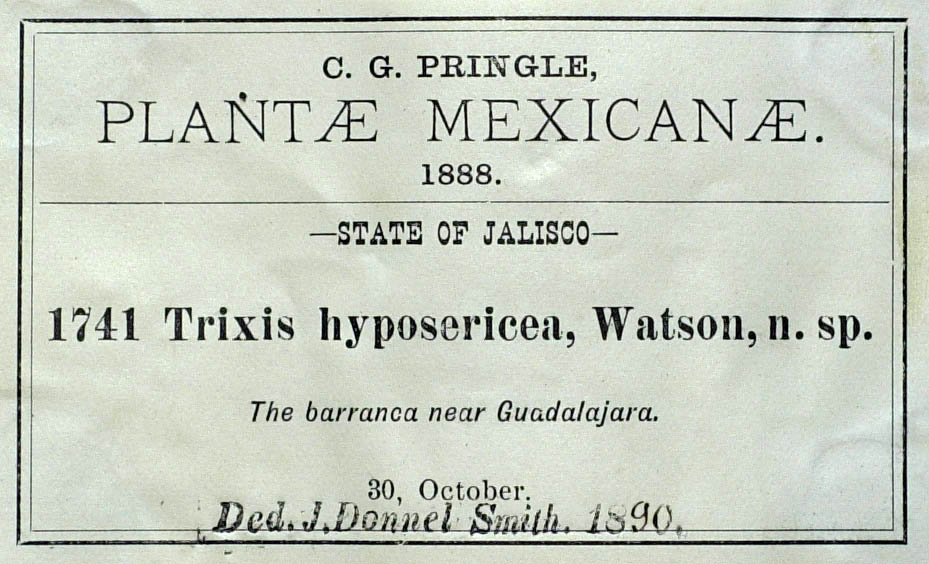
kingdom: Plantae
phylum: Tracheophyta
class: Magnoliopsida
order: Asterales
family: Asteraceae
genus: Trixis
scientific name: Trixis hyposericea
